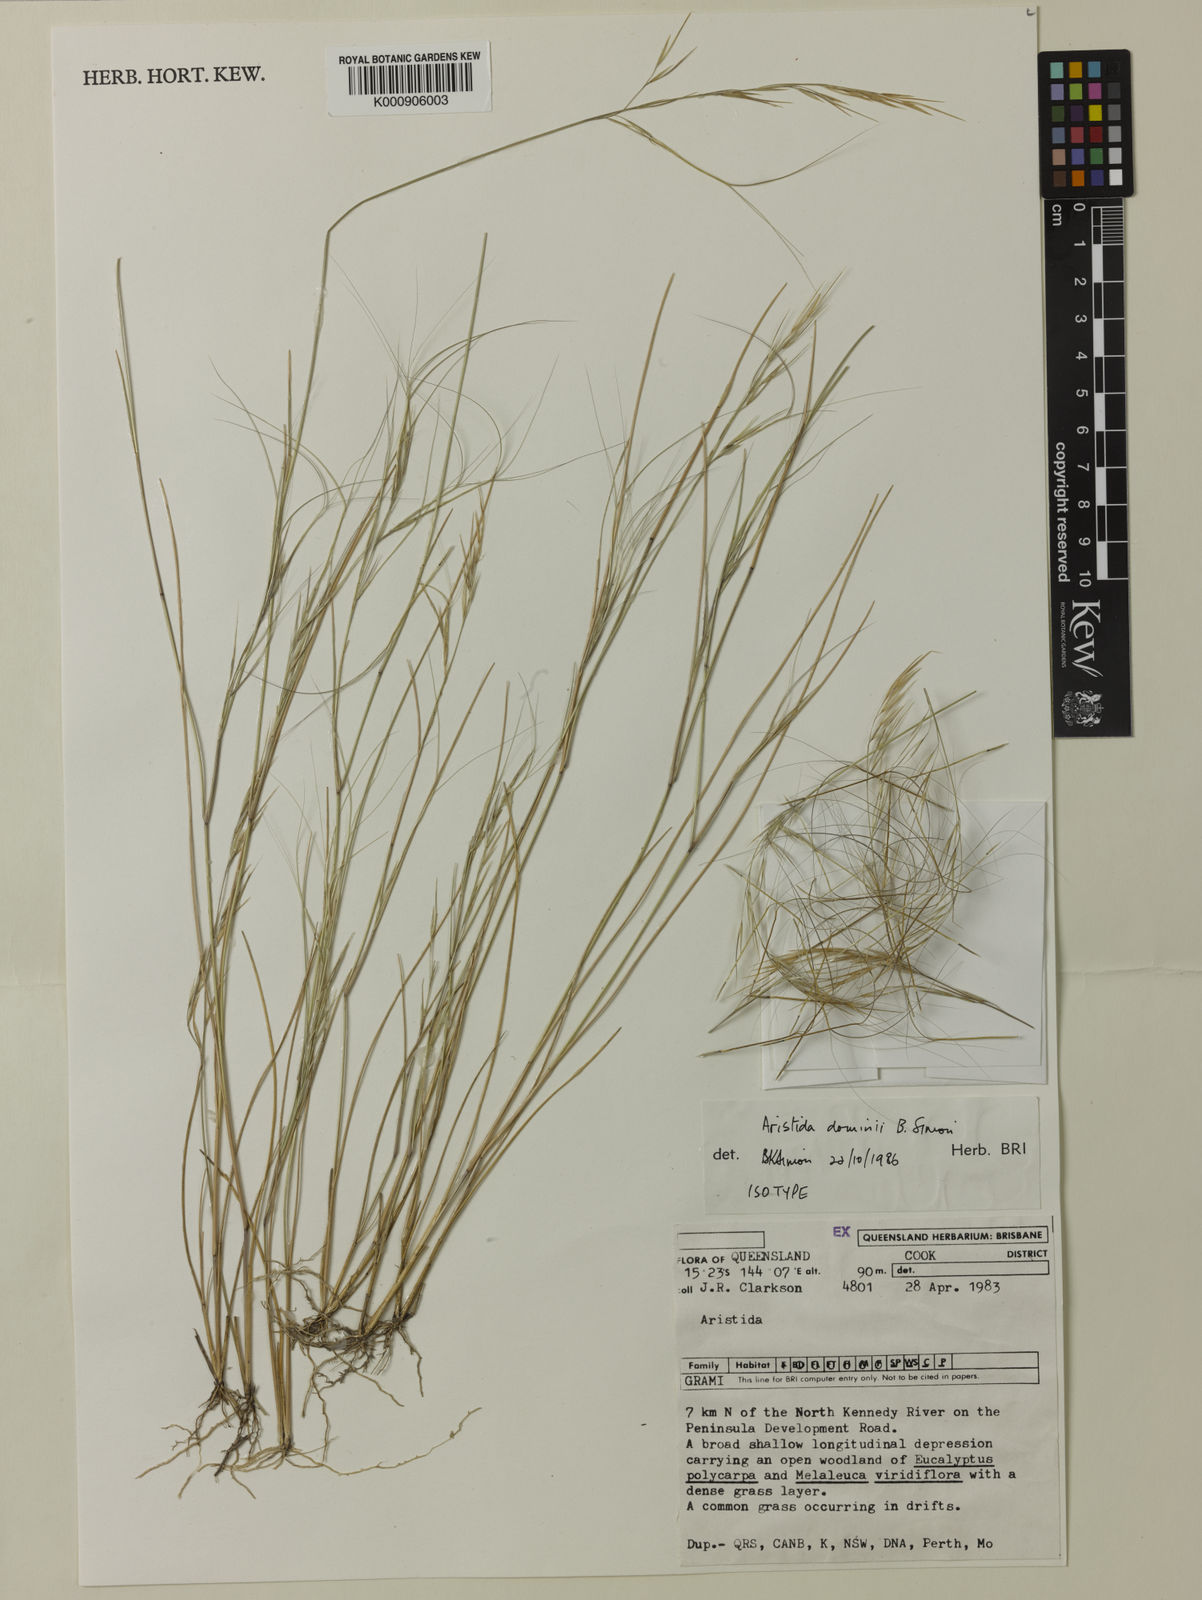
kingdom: Plantae
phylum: Tracheophyta
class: Liliopsida
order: Poales
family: Poaceae
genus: Aristida
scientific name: Aristida dominii
